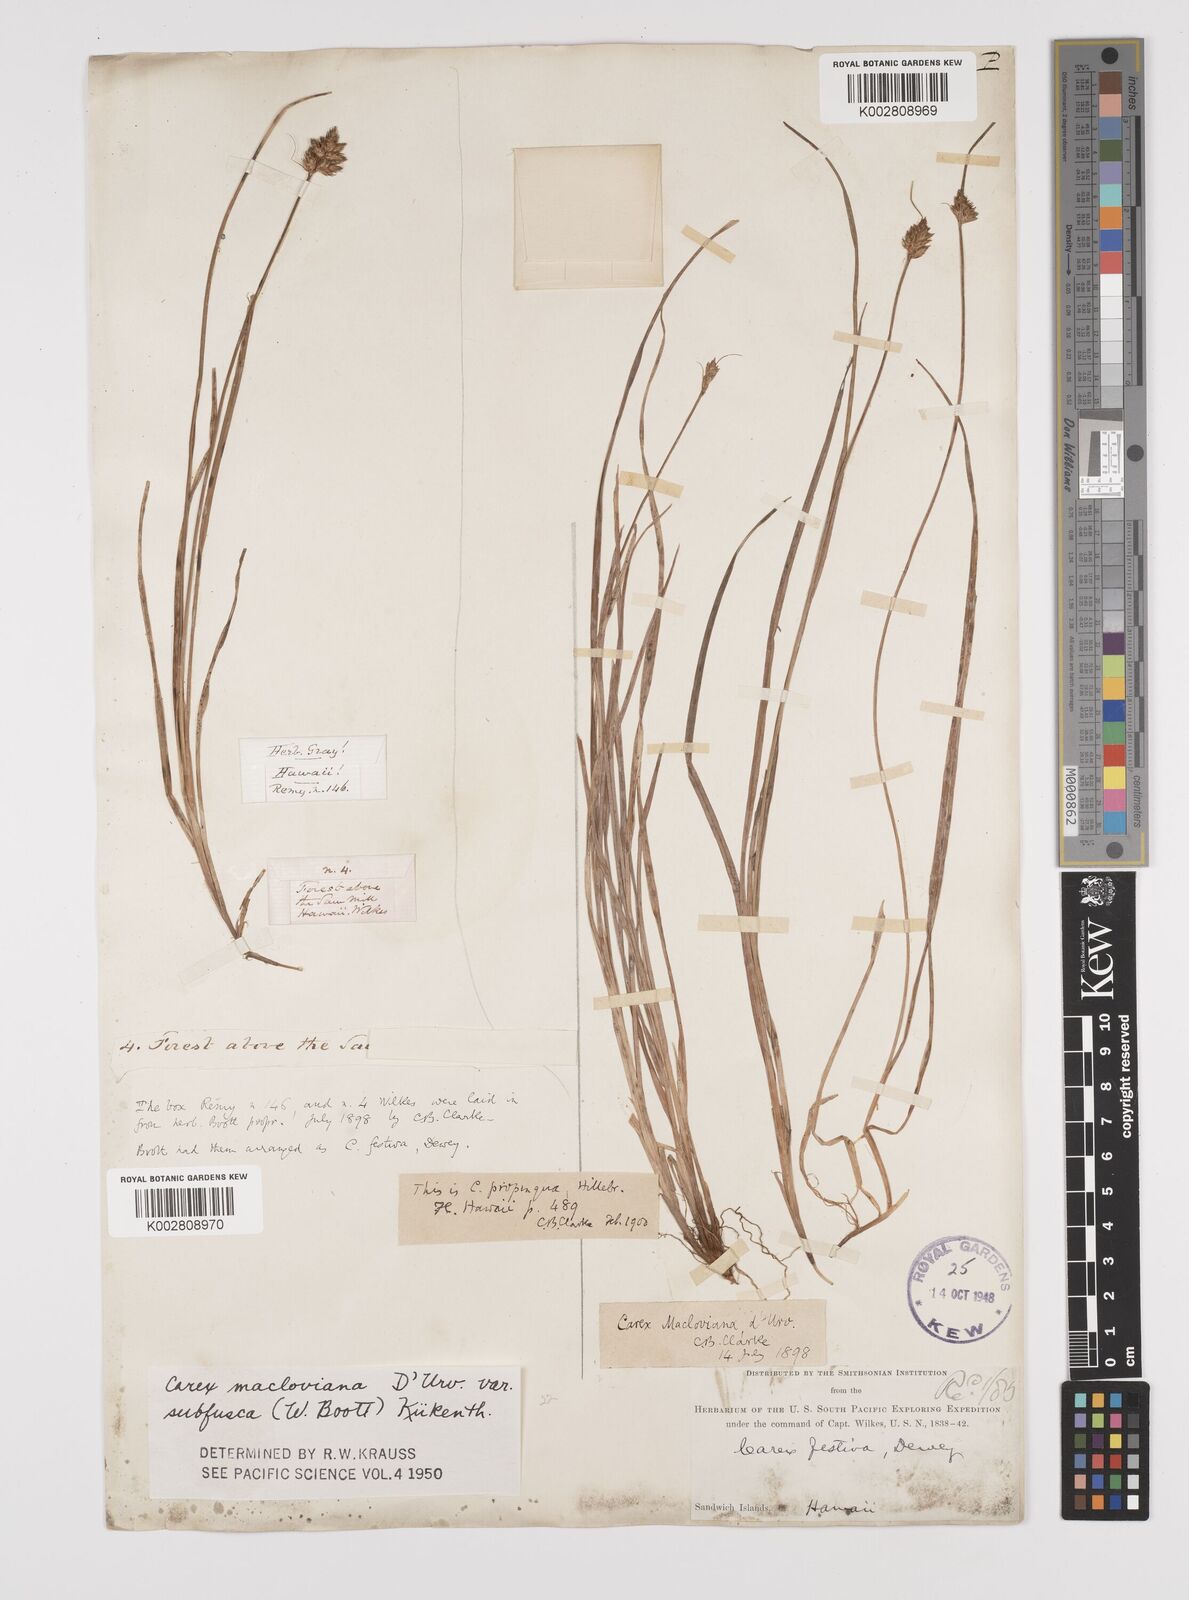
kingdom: Plantae
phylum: Tracheophyta
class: Liliopsida
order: Poales
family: Cyperaceae
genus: Carex
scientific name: Carex subfusca
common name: Brown sedge
